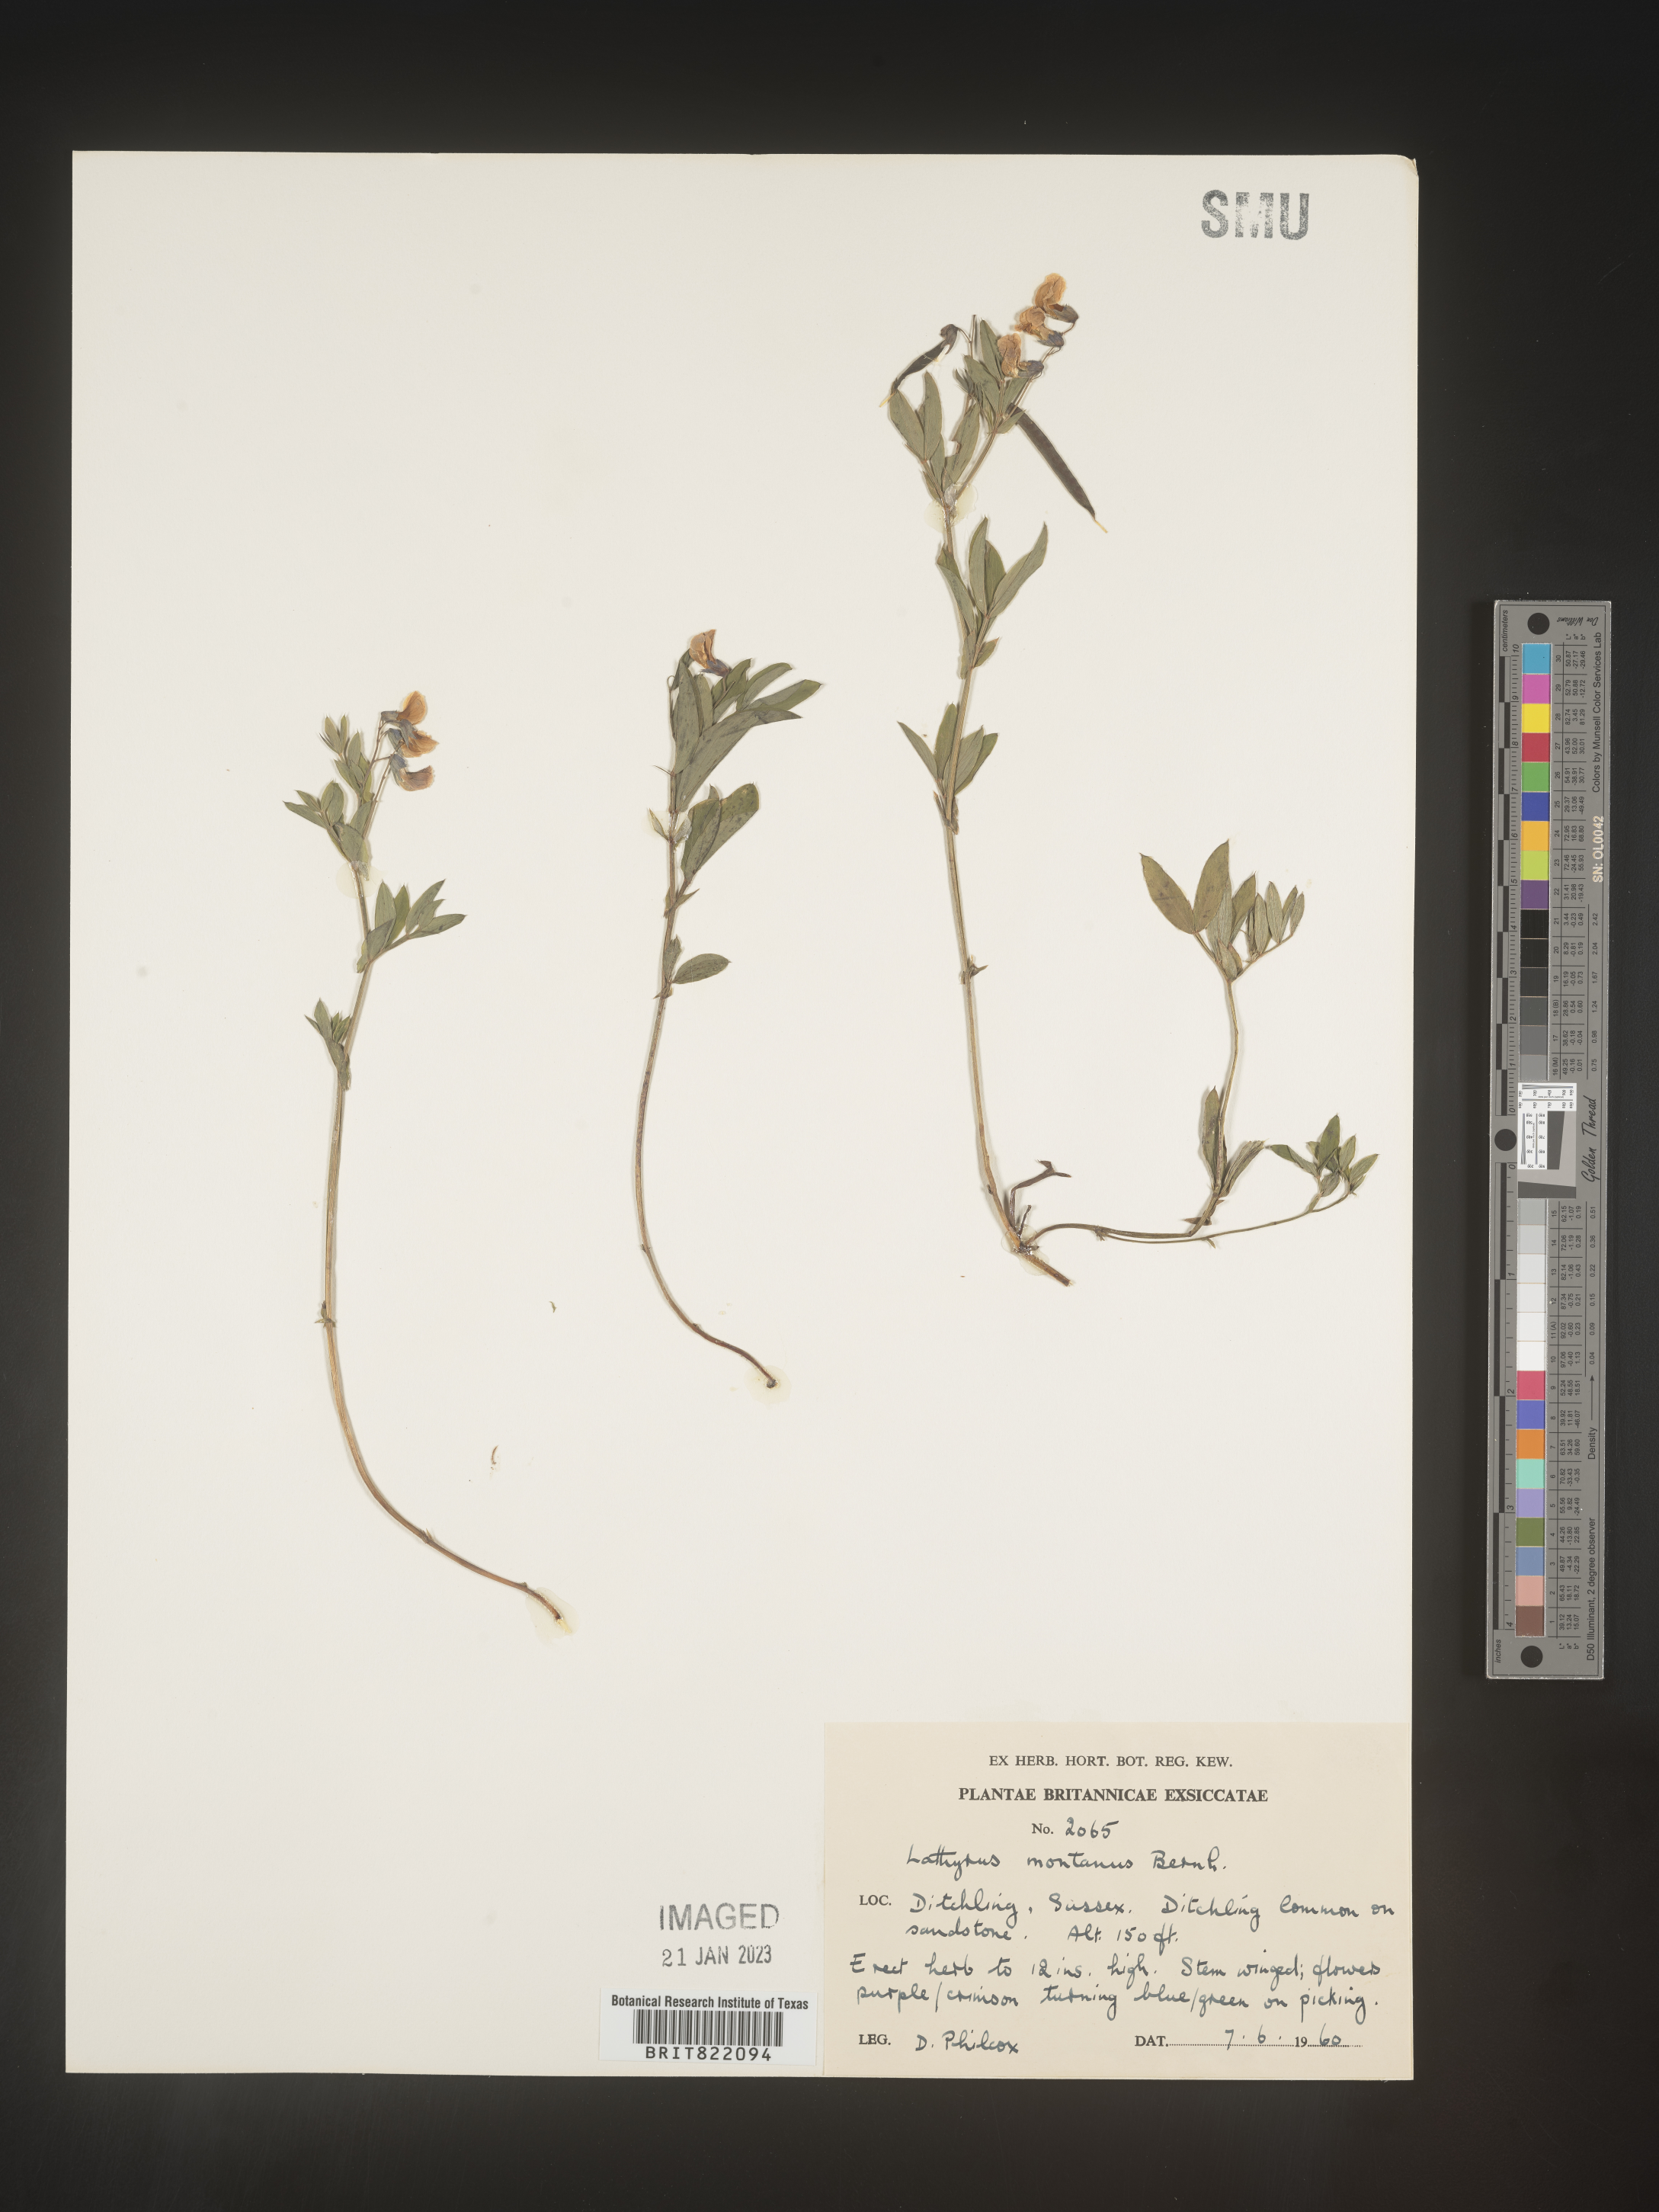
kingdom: Plantae
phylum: Tracheophyta
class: Magnoliopsida
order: Fabales
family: Fabaceae
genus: Lathyrus
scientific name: Lathyrus
